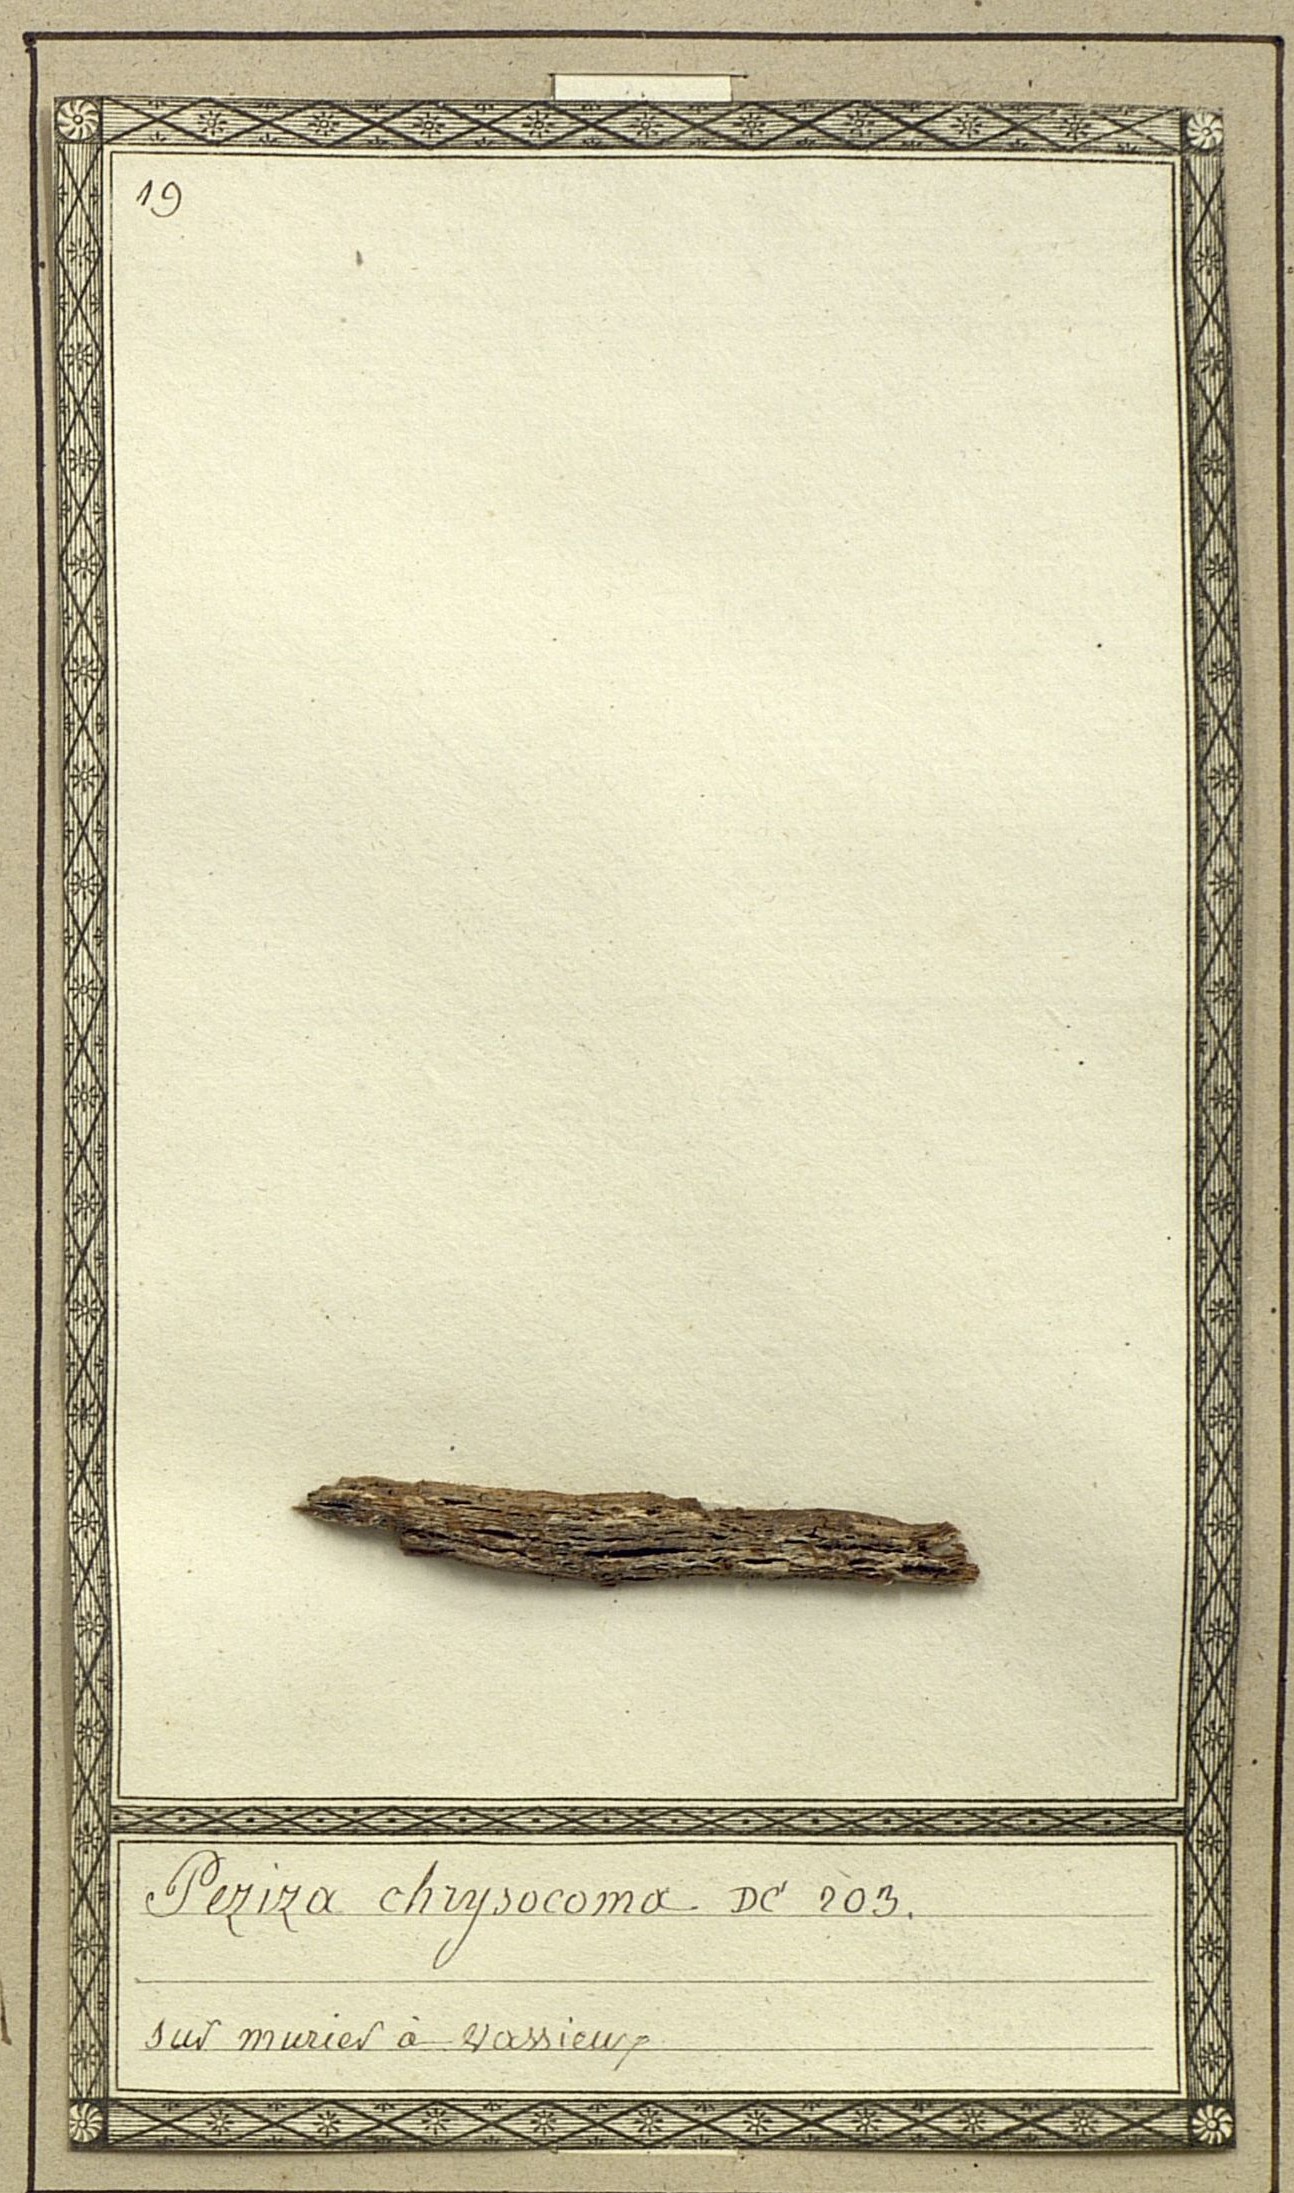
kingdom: Fungi
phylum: Ascomycota
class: Pezizomycetes
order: Pezizales
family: Pezizaceae
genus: Peziza
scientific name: Peziza
